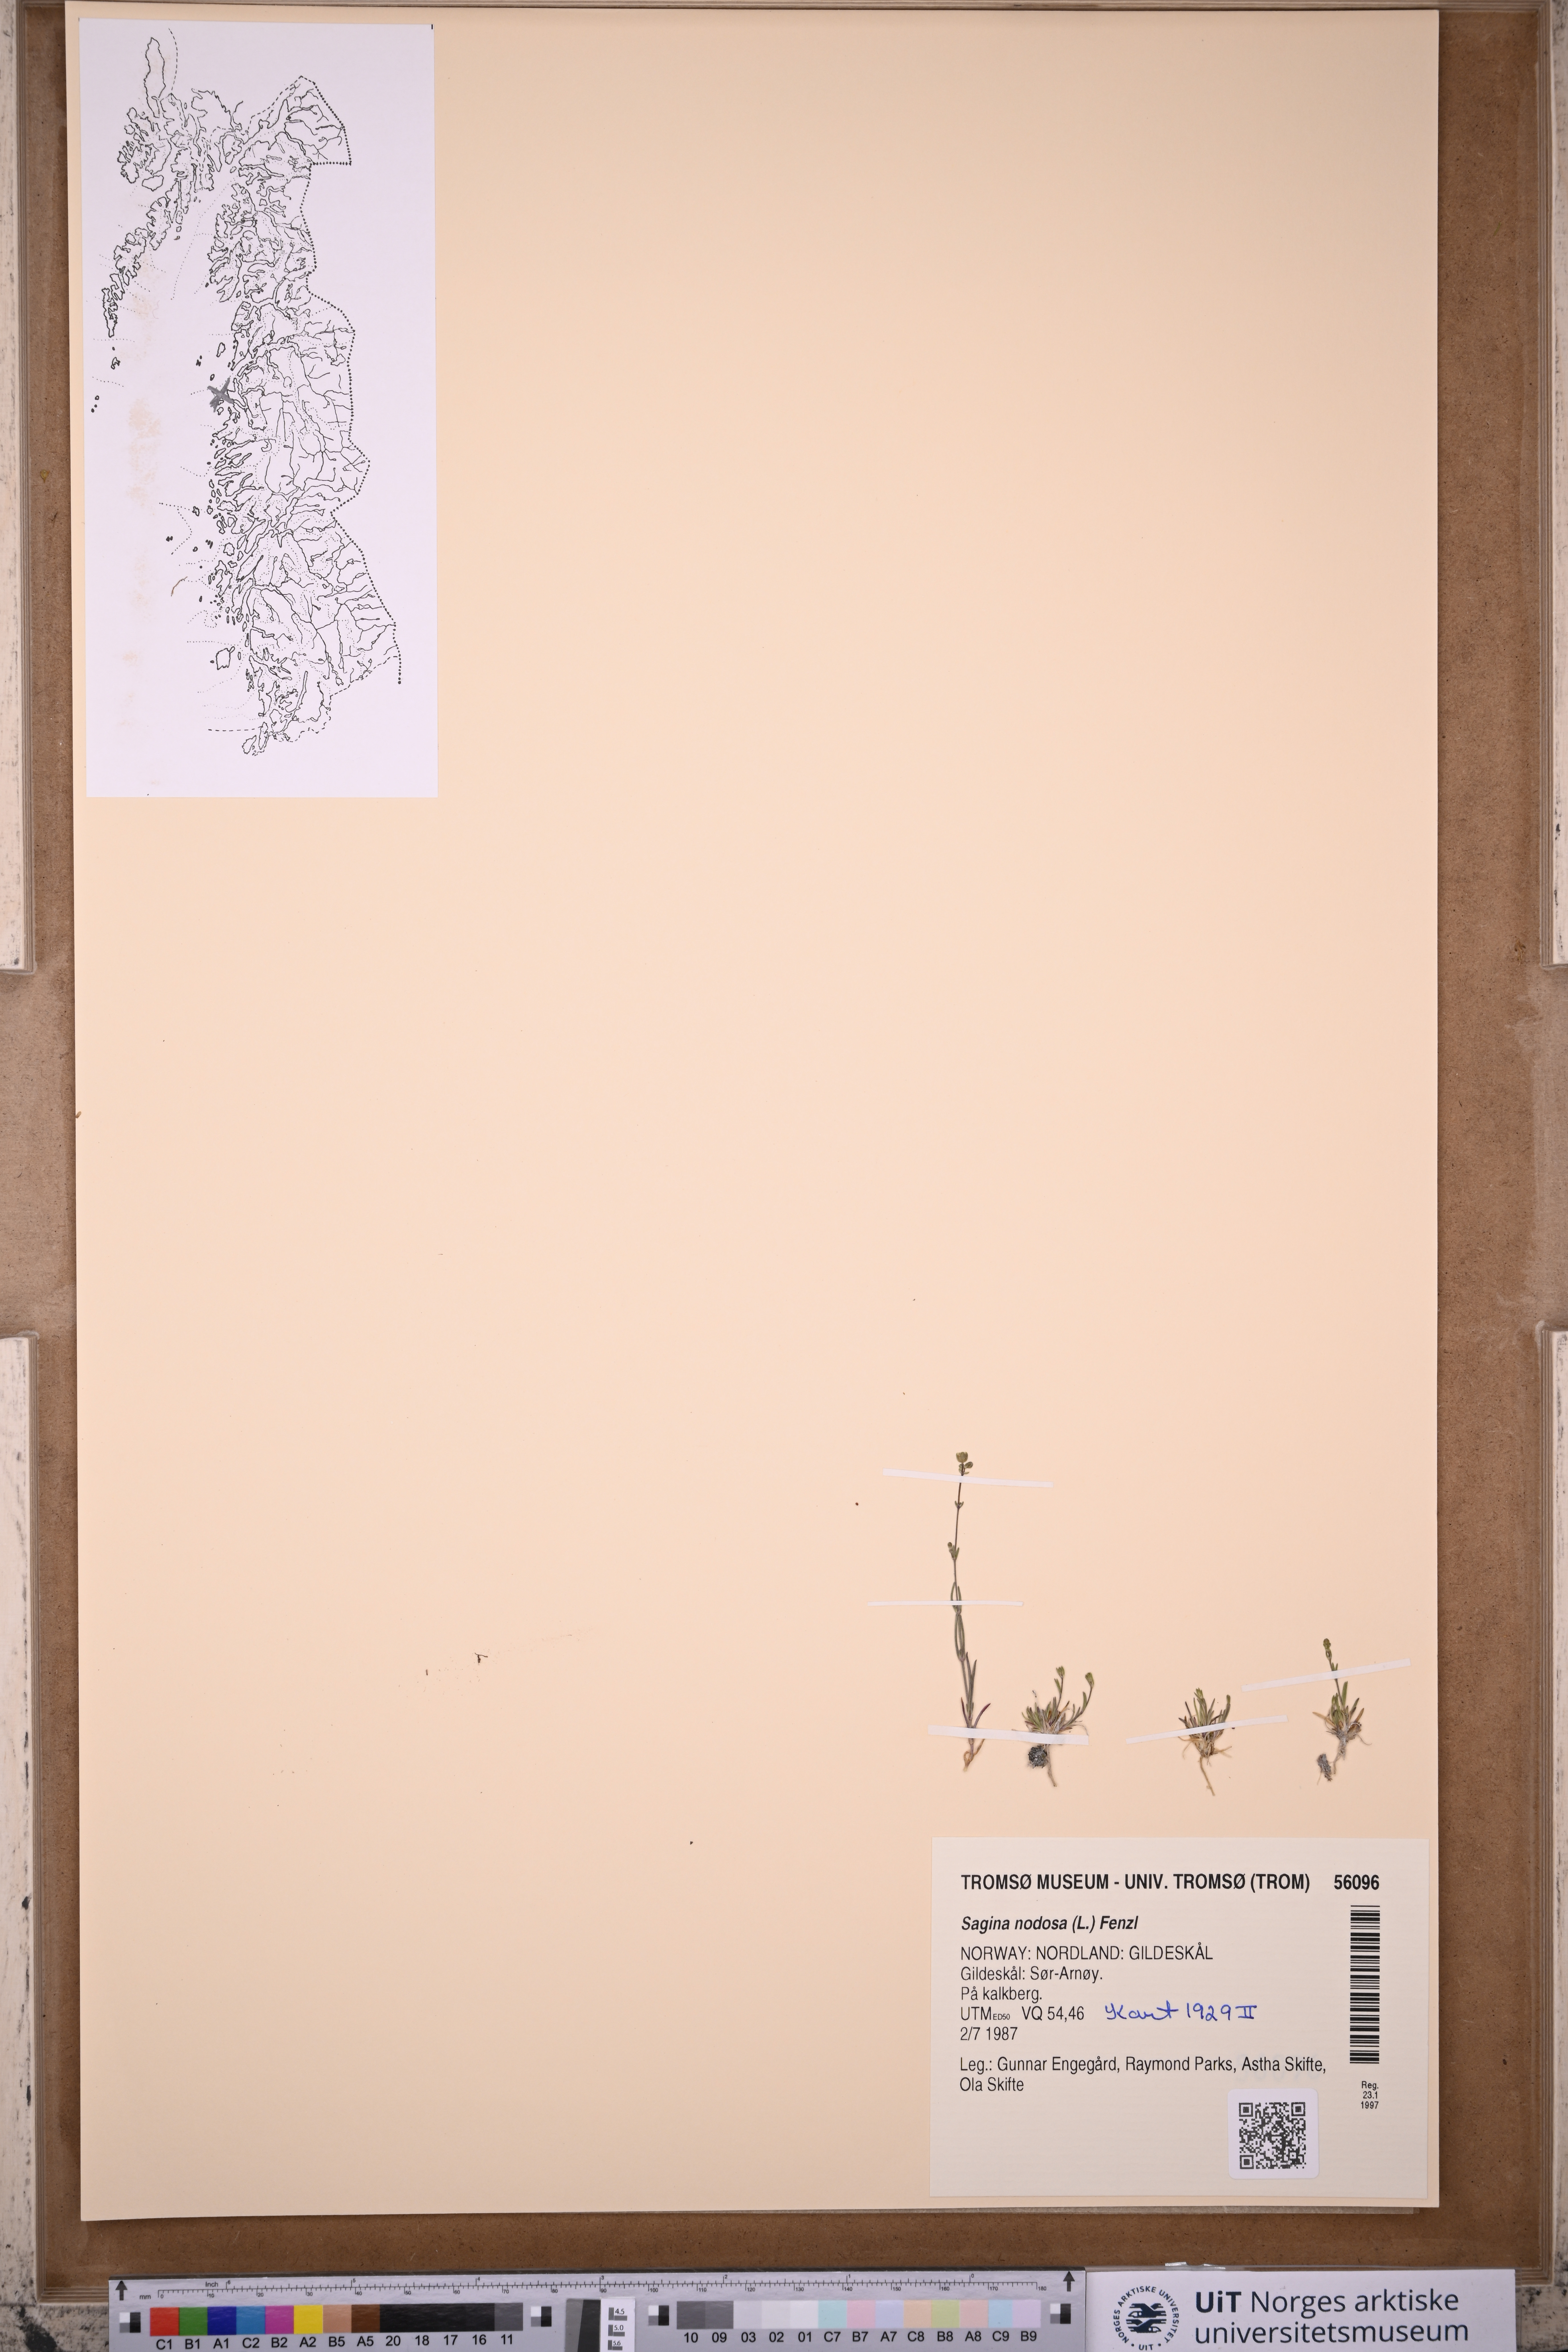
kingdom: Plantae
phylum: Tracheophyta
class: Magnoliopsida
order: Caryophyllales
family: Caryophyllaceae
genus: Sagina
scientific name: Sagina nodosa
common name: Knotted pearlwort
